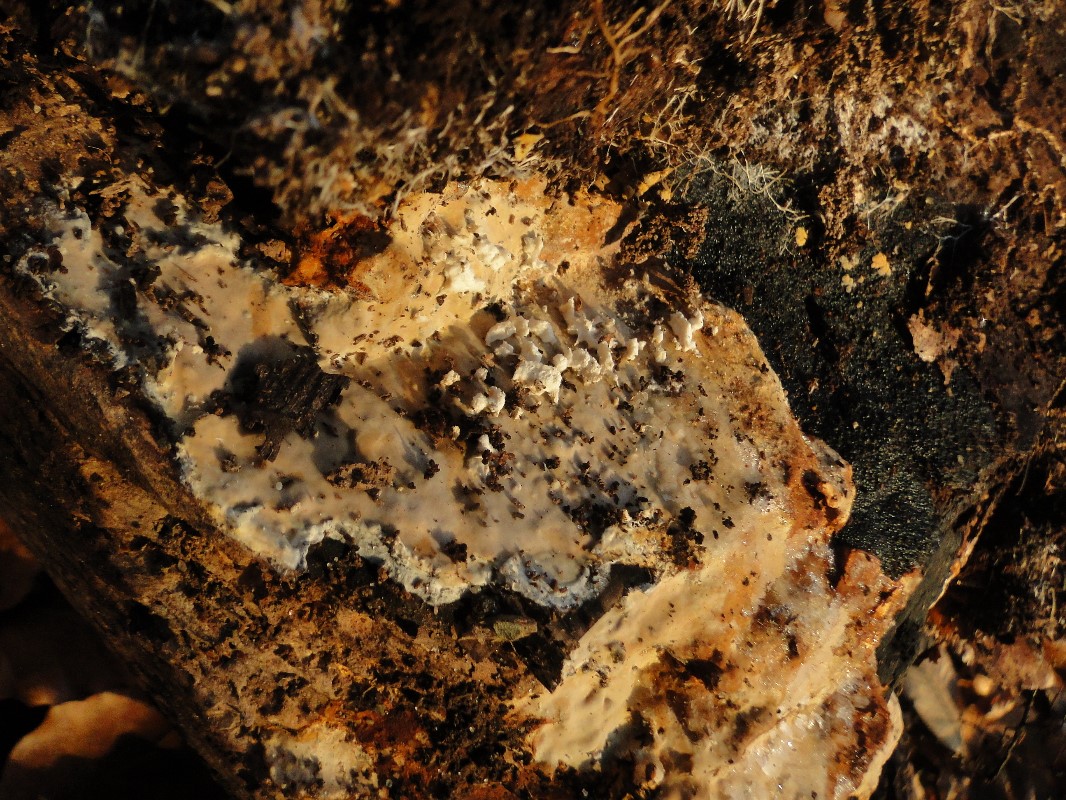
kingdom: Fungi
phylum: Basidiomycota
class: Agaricomycetes
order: Russulales
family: Peniophoraceae
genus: Scytinostroma
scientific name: Scytinostroma hemidichophyticum
